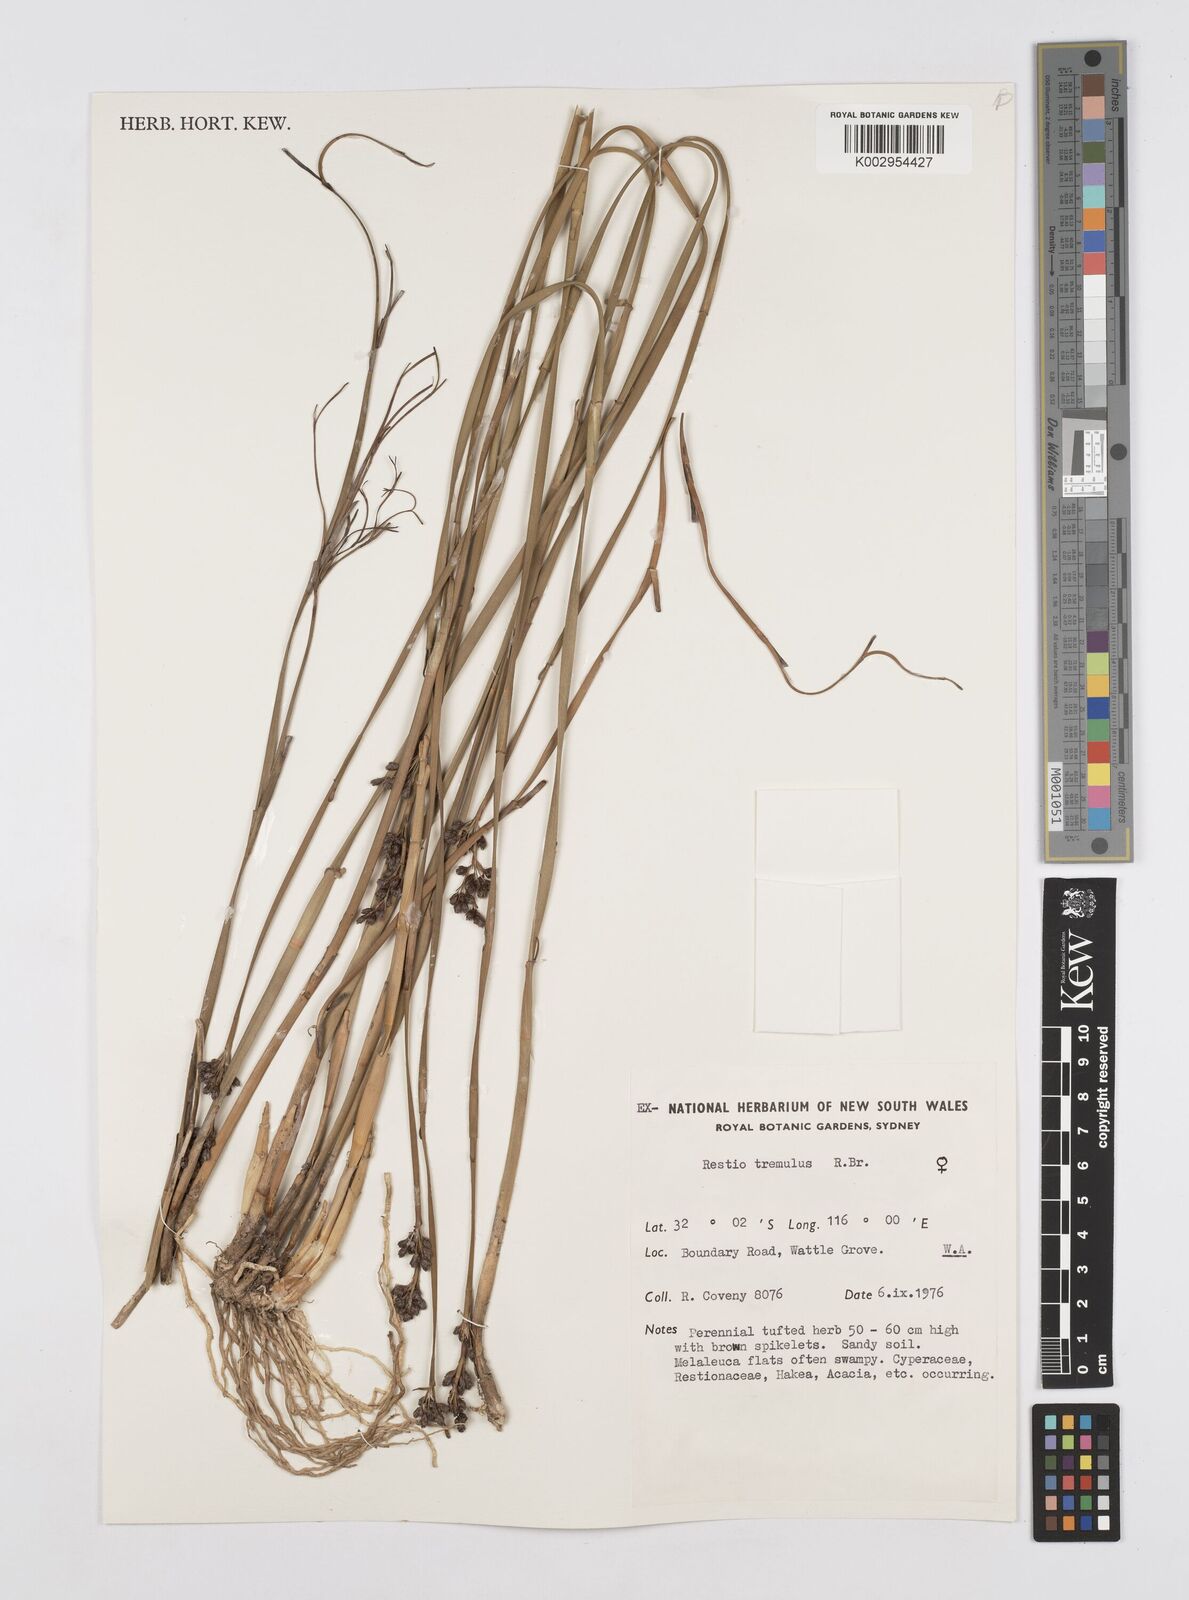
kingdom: Plantae
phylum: Tracheophyta
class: Liliopsida
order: Poales
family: Restionaceae
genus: Tremulina
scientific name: Tremulina tremula
